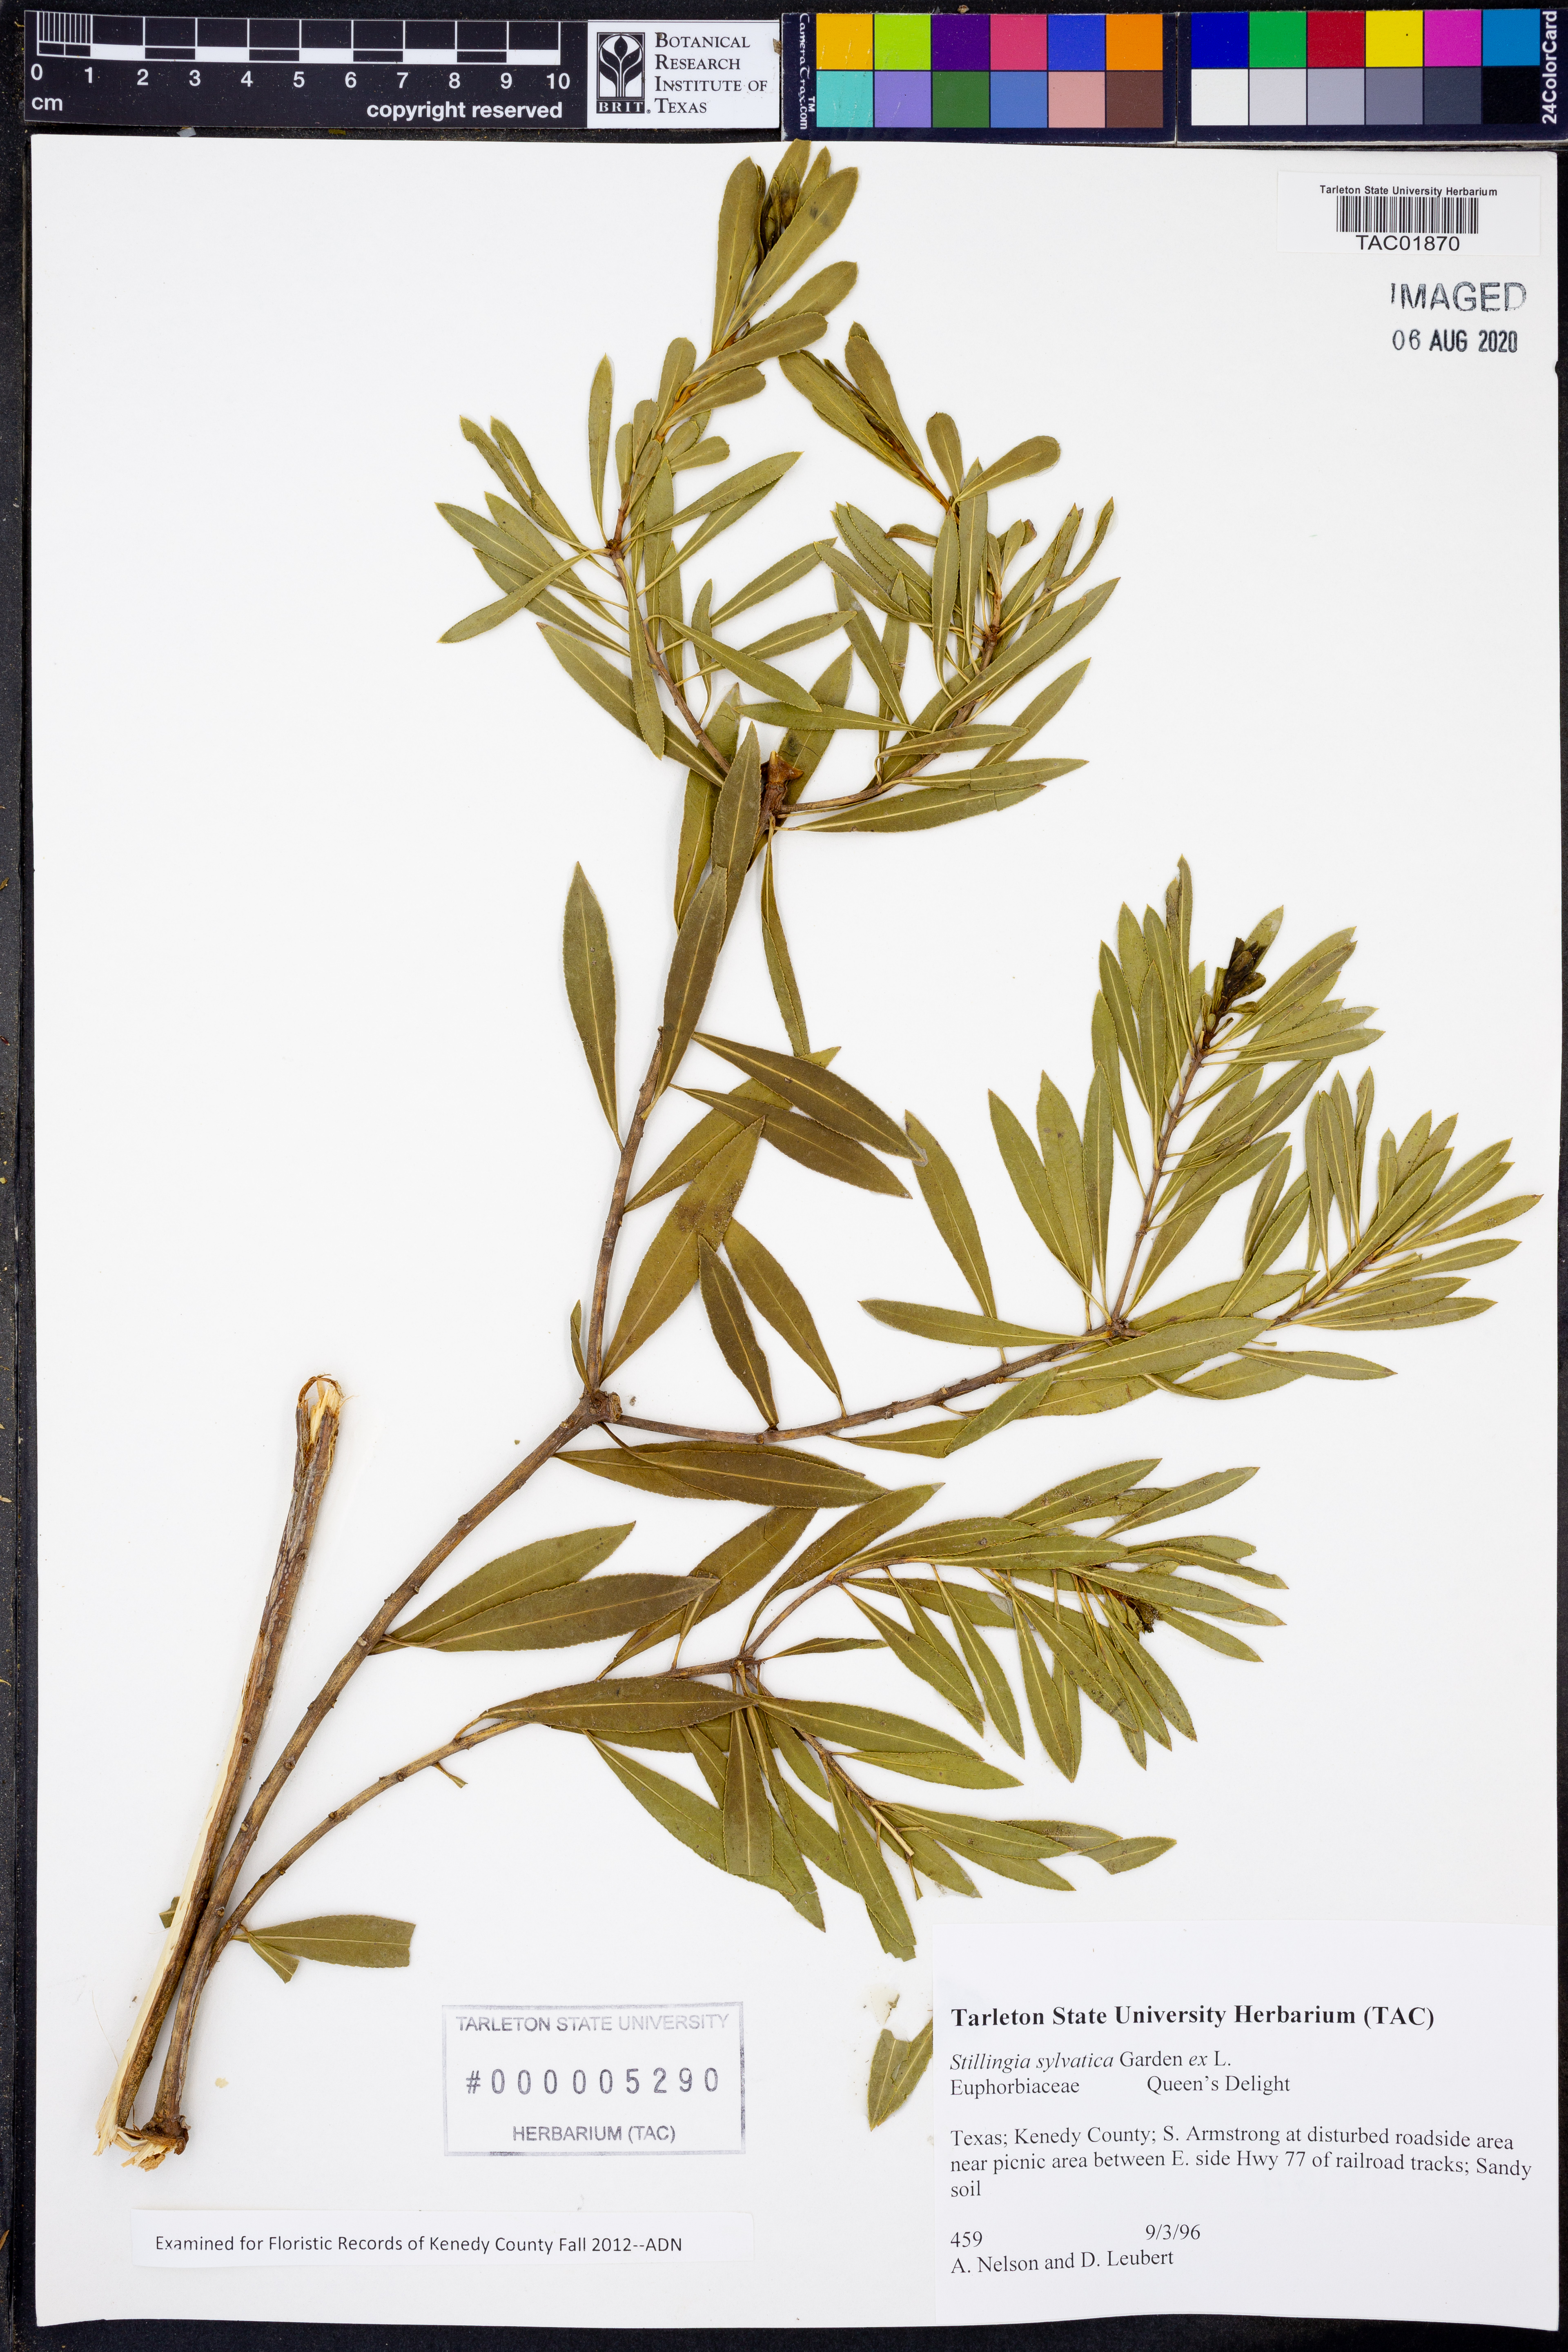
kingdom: Plantae
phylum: Tracheophyta
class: Magnoliopsida
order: Malpighiales
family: Euphorbiaceae
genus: Stillingia
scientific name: Stillingia sylvatica
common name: Queen's-delight
